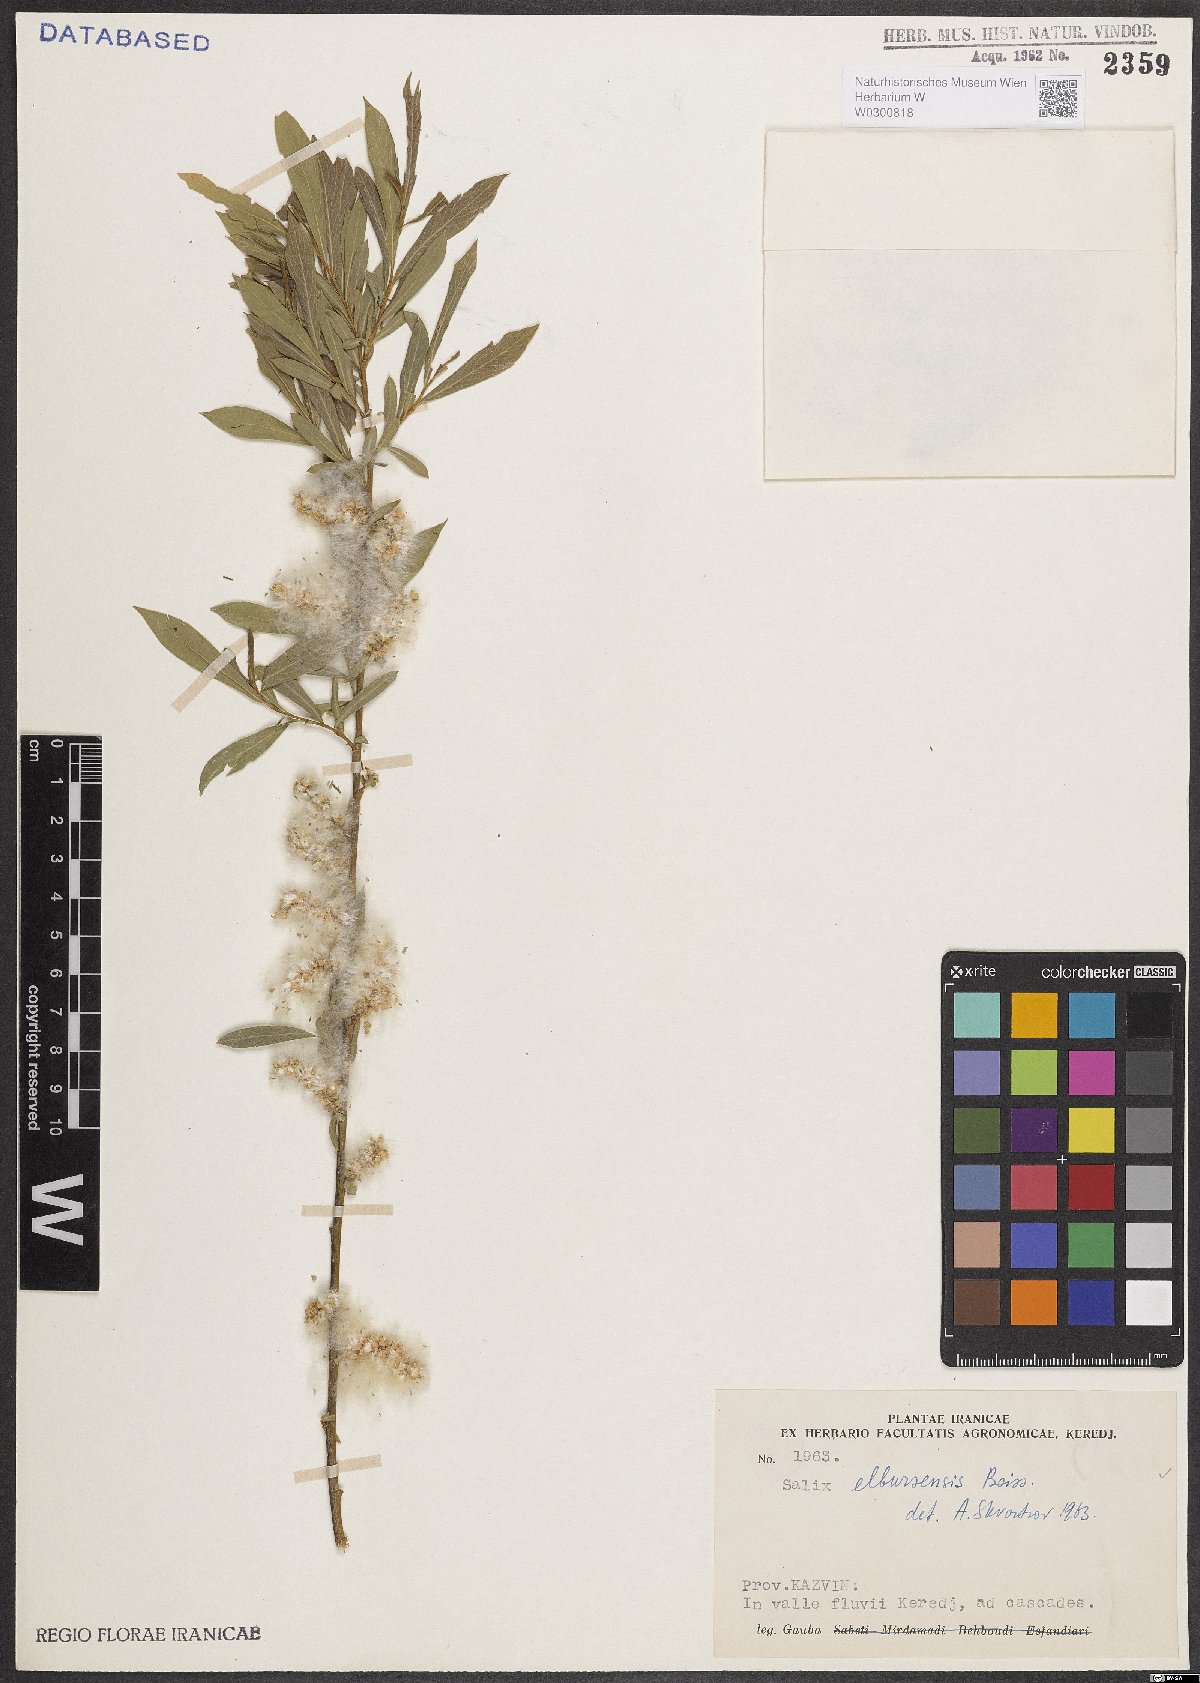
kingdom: Plantae
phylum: Tracheophyta
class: Magnoliopsida
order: Malpighiales
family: Salicaceae
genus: Salix
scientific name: Salix elbursensis
